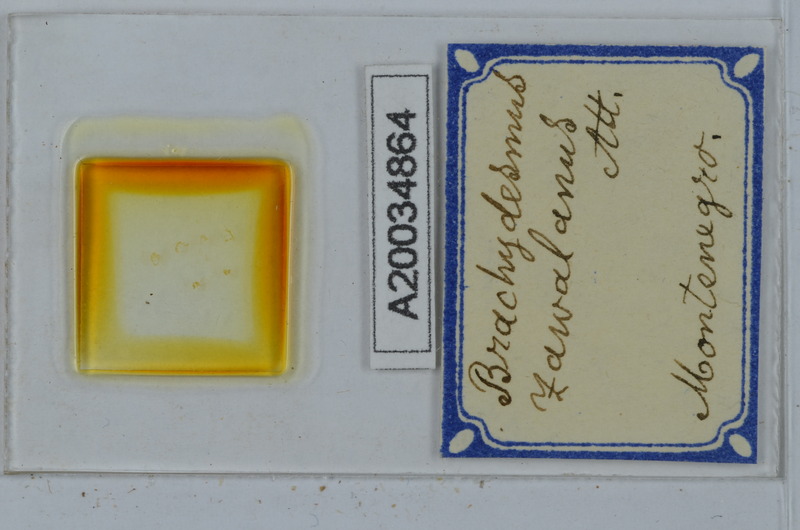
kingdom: Animalia
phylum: Arthropoda
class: Diplopoda
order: Polydesmida
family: Polydesmidae
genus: Brachydesmus
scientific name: Brachydesmus stygivagus
